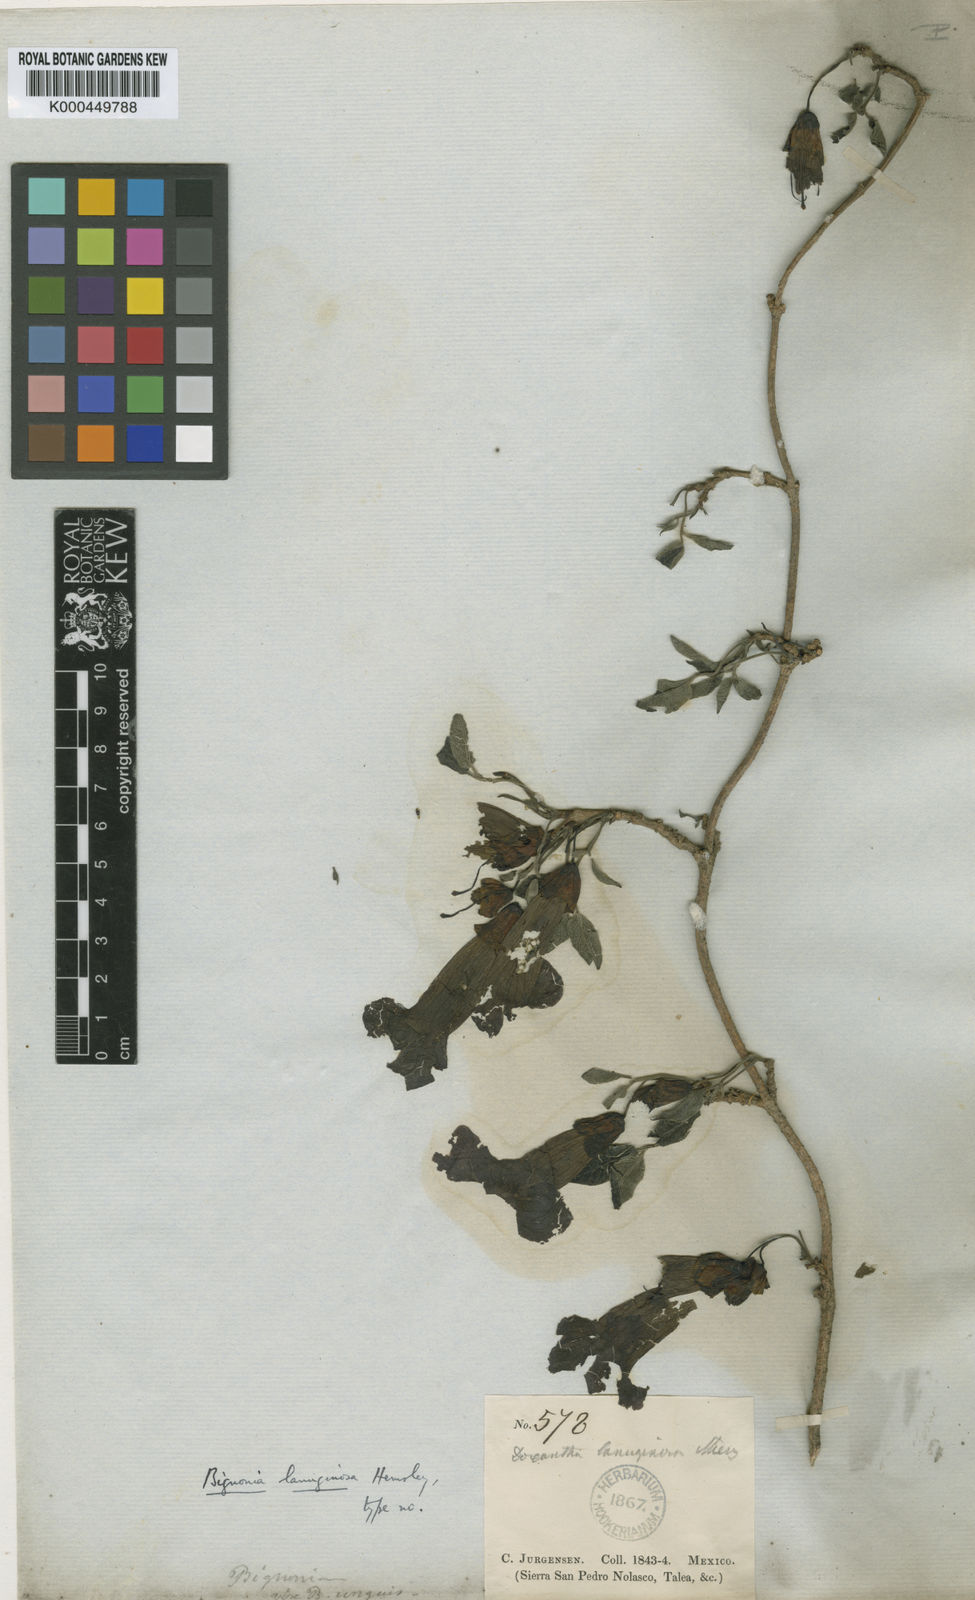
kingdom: Plantae
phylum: Tracheophyta
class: Magnoliopsida
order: Lamiales
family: Bignoniaceae
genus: Dolichandra
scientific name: Dolichandra unguis-cati
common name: Catclaw vine
